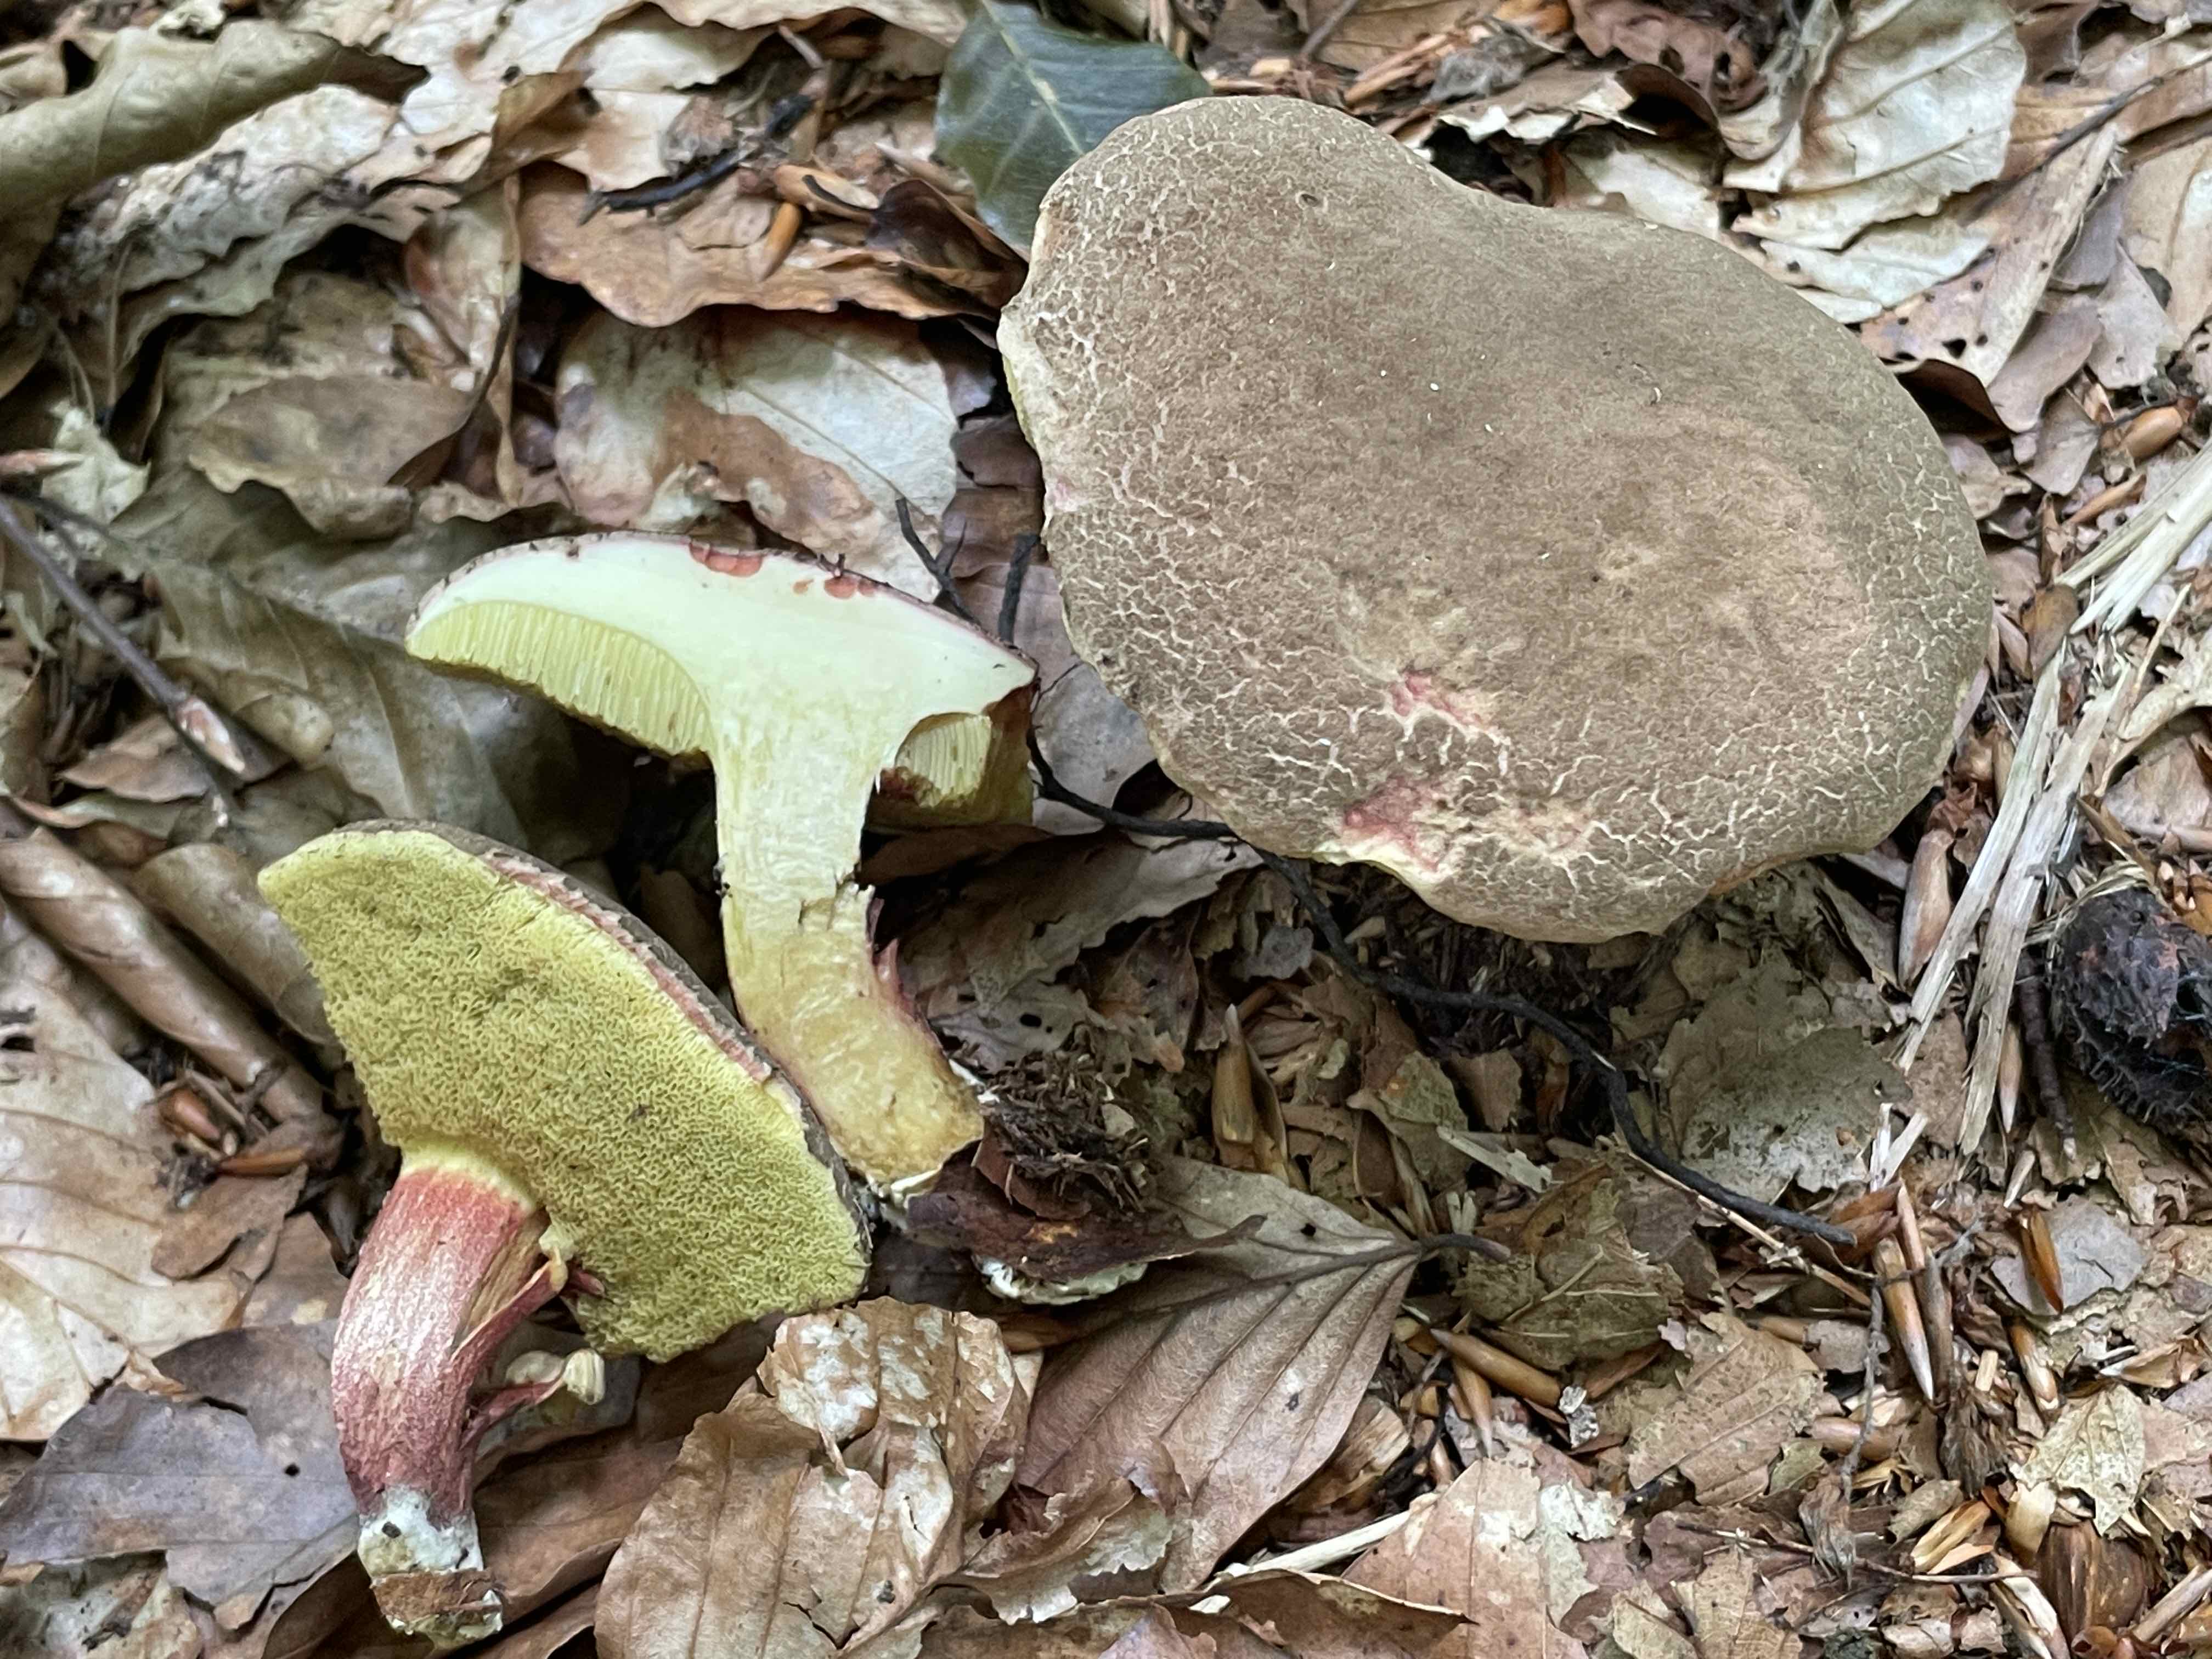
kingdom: Fungi
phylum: Basidiomycota
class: Agaricomycetes
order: Boletales
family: Boletaceae
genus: Xerocomellus
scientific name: Xerocomellus chrysenteron
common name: rødsprukken rørhat
